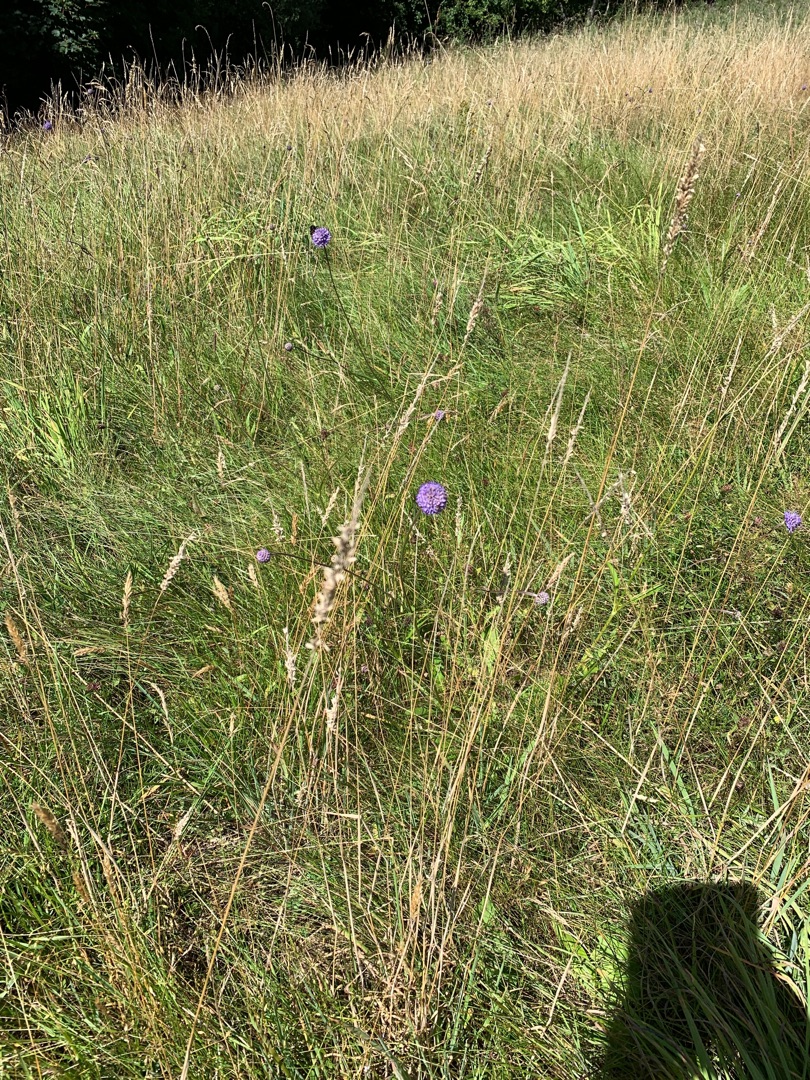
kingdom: Plantae
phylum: Tracheophyta
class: Magnoliopsida
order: Dipsacales
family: Caprifoliaceae
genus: Succisa
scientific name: Succisa pratensis
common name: Djævelsbid
